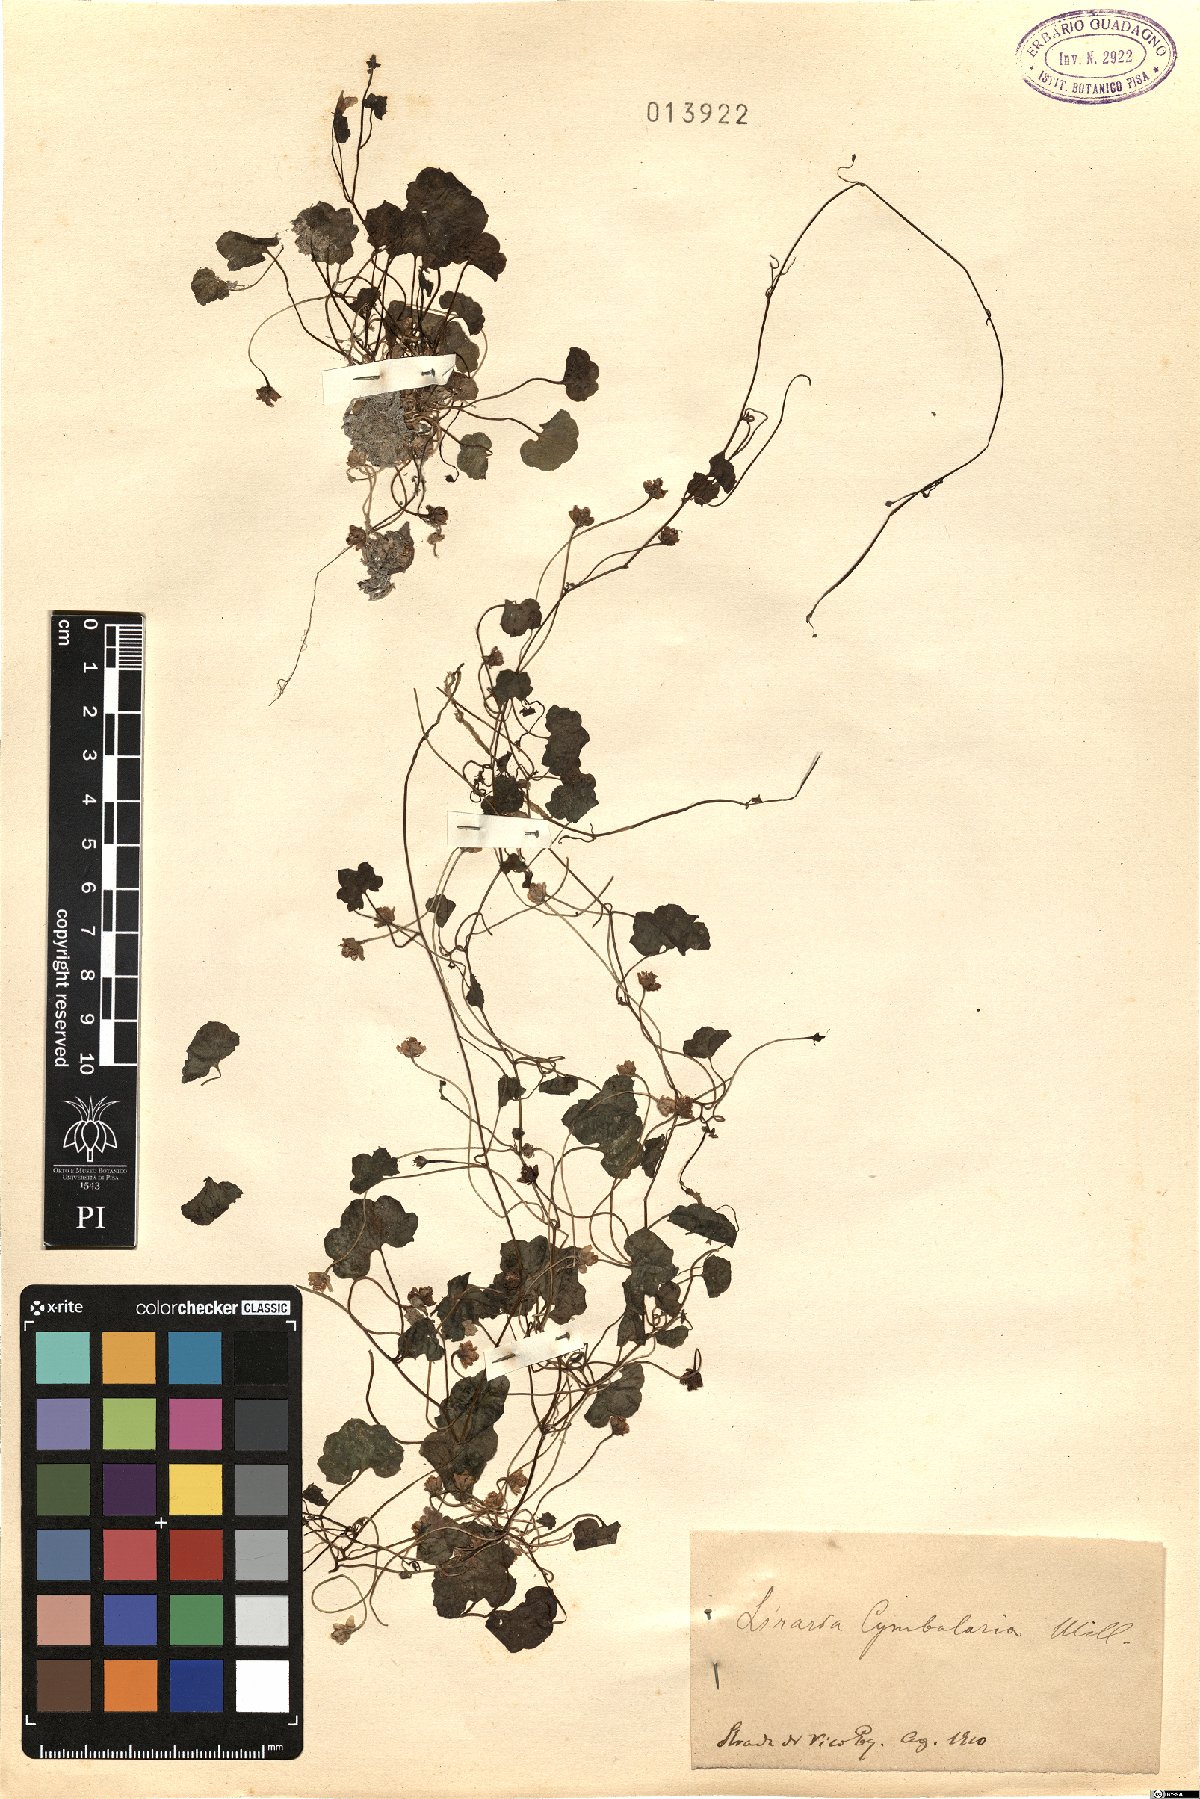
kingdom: Plantae
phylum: Tracheophyta
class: Magnoliopsida
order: Lamiales
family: Plantaginaceae
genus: Cymbalaria
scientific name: Cymbalaria muralis
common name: Ivy-leaved toadflax
